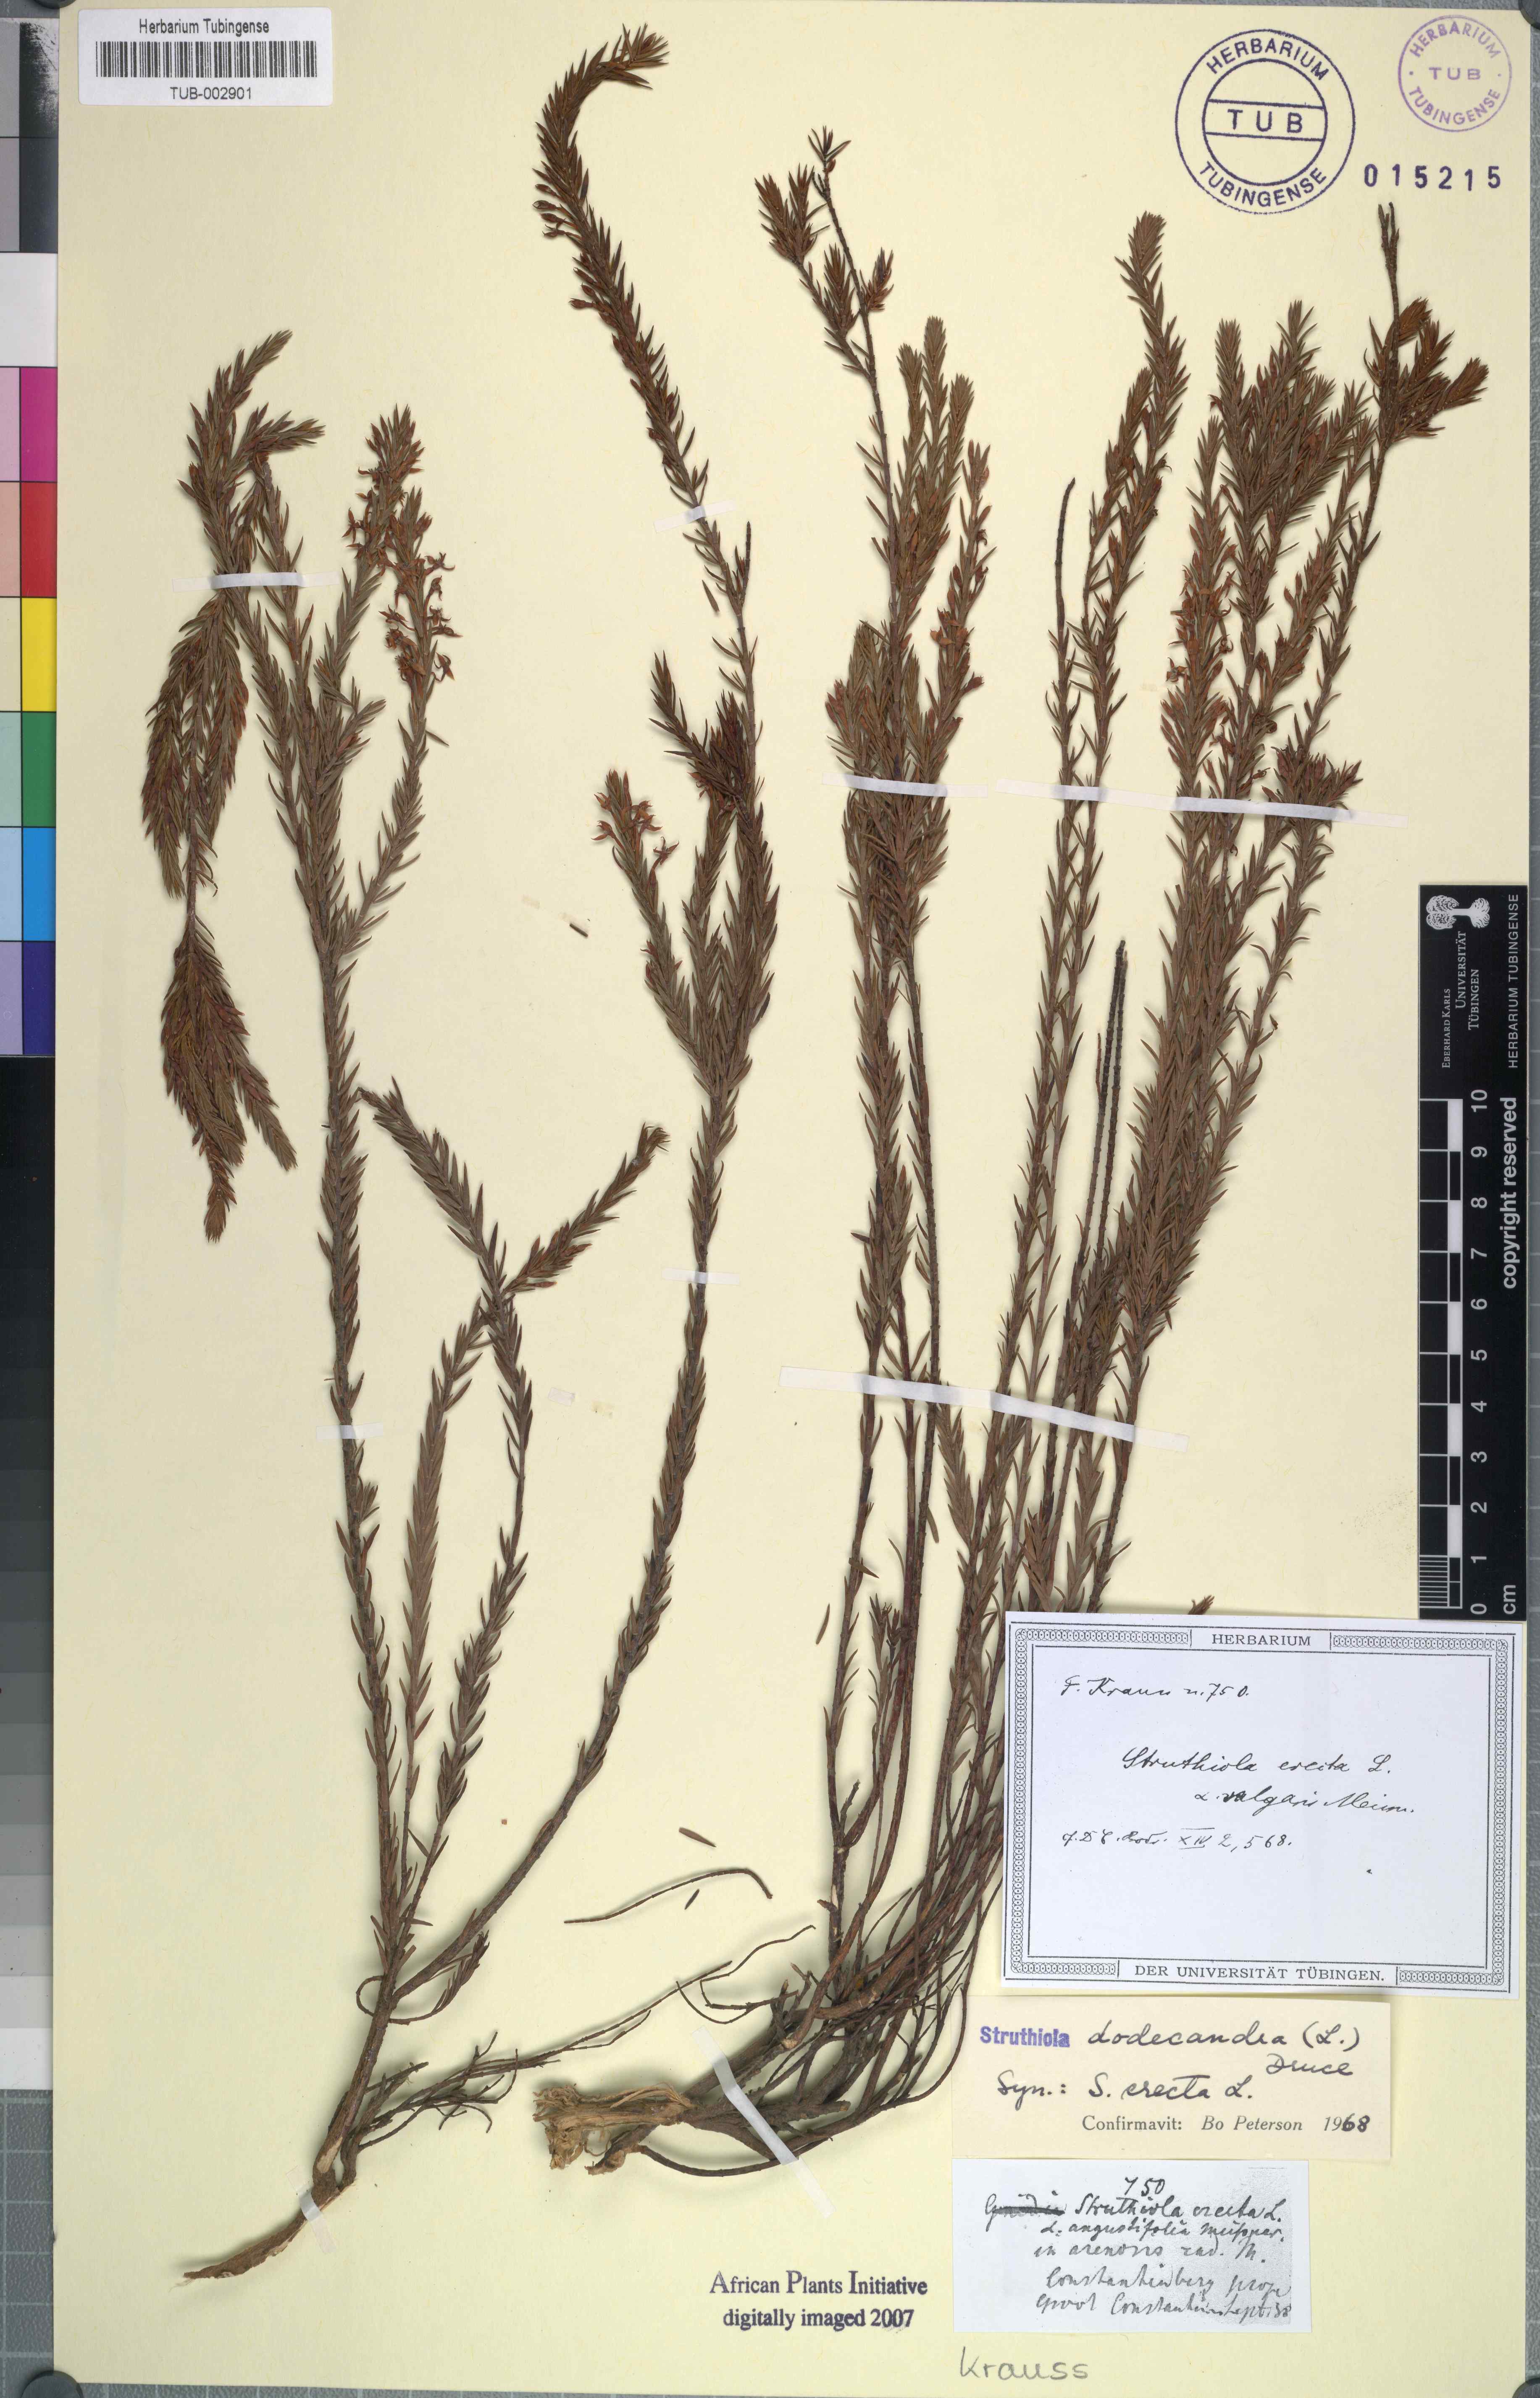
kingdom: Plantae
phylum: Tracheophyta
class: Magnoliopsida
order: Malvales
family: Thymelaeaceae
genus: Struthiola
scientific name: Struthiola dodecandra
